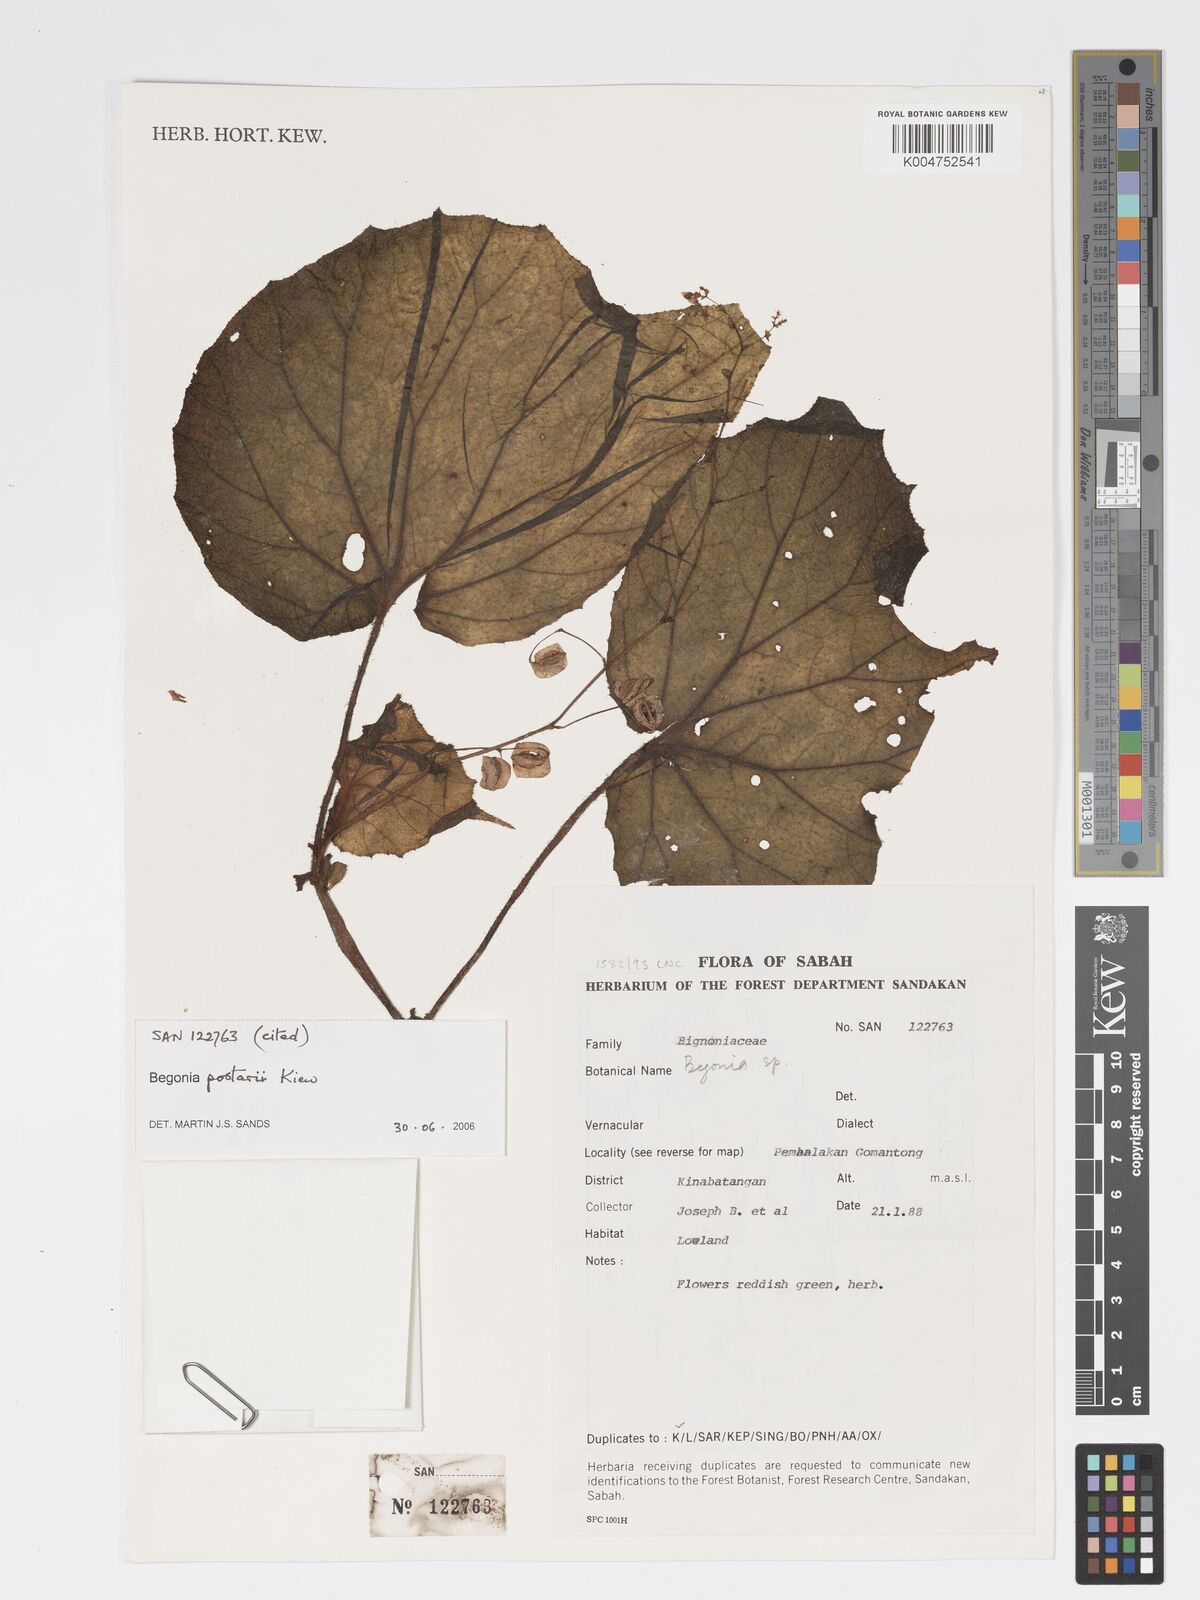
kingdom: Plantae
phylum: Tracheophyta
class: Magnoliopsida
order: Cucurbitales
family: Begoniaceae
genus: Begonia
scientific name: Begonia postarii
